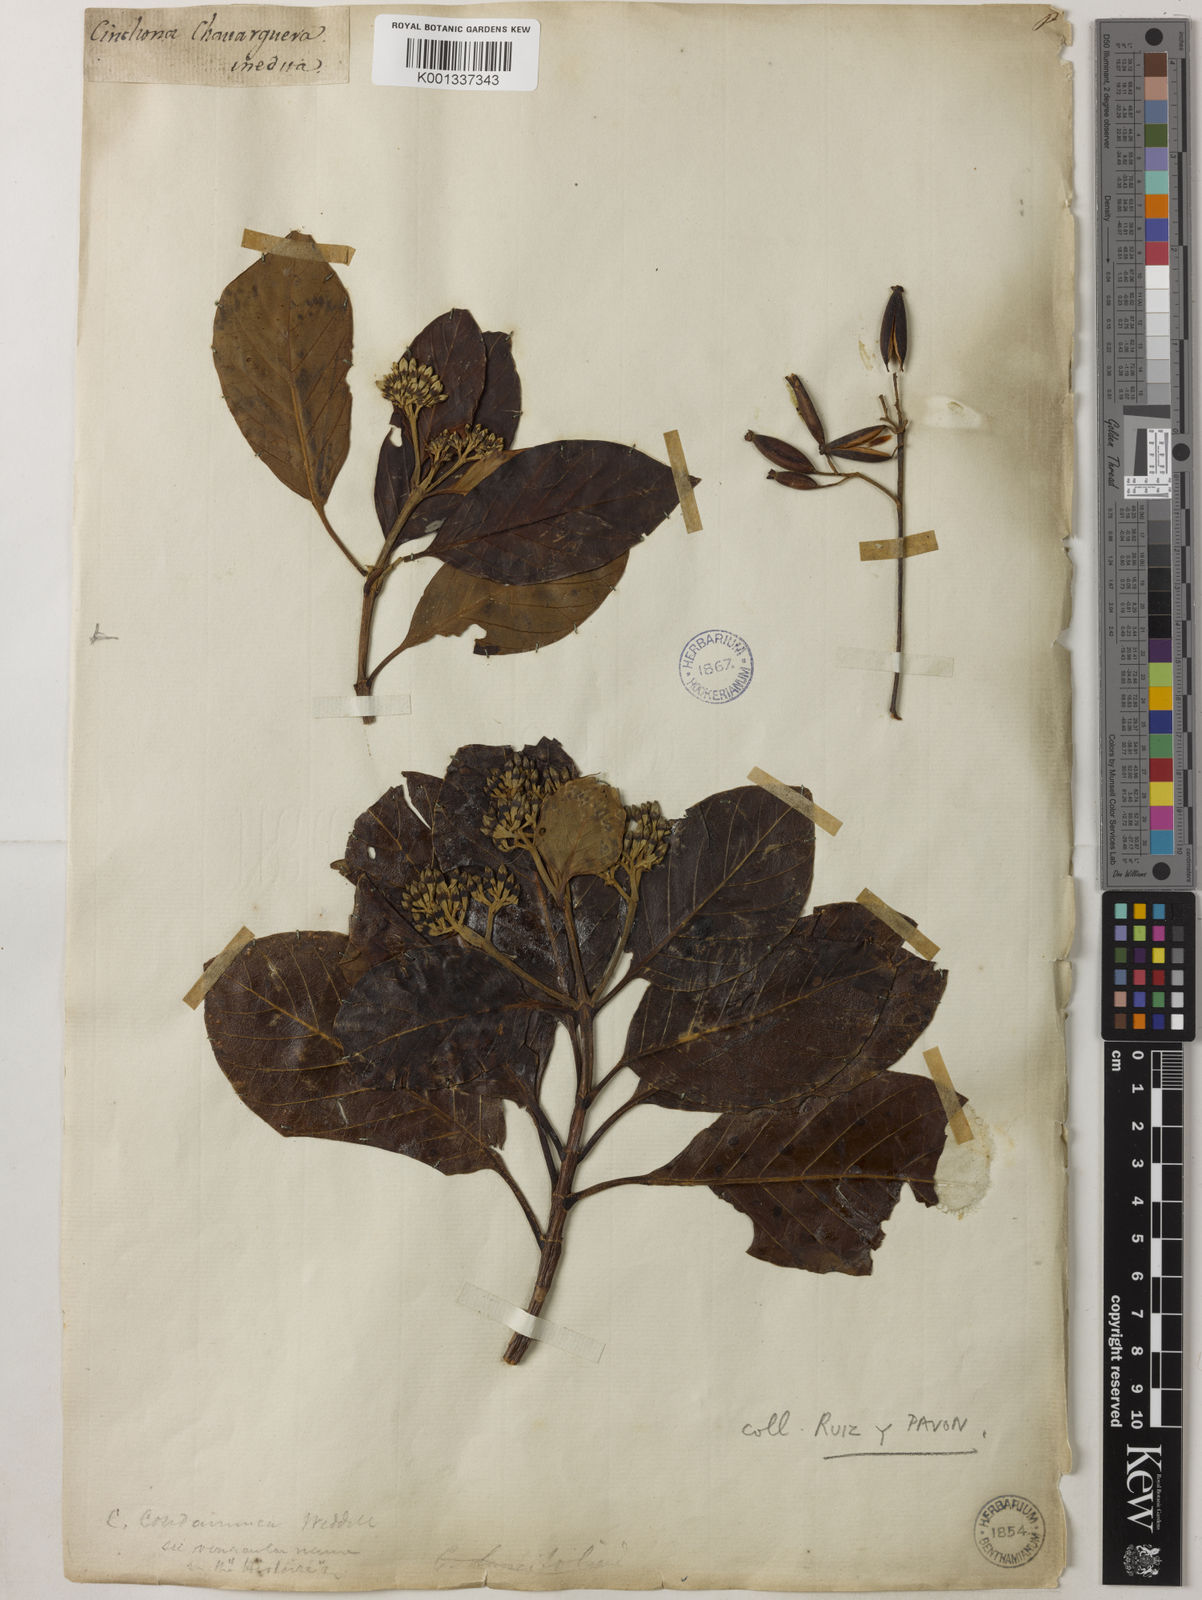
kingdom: Plantae
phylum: Tracheophyta
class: Magnoliopsida
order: Gentianales
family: Rubiaceae
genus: Cinchona
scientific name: Cinchona officinalis
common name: Lojabark
